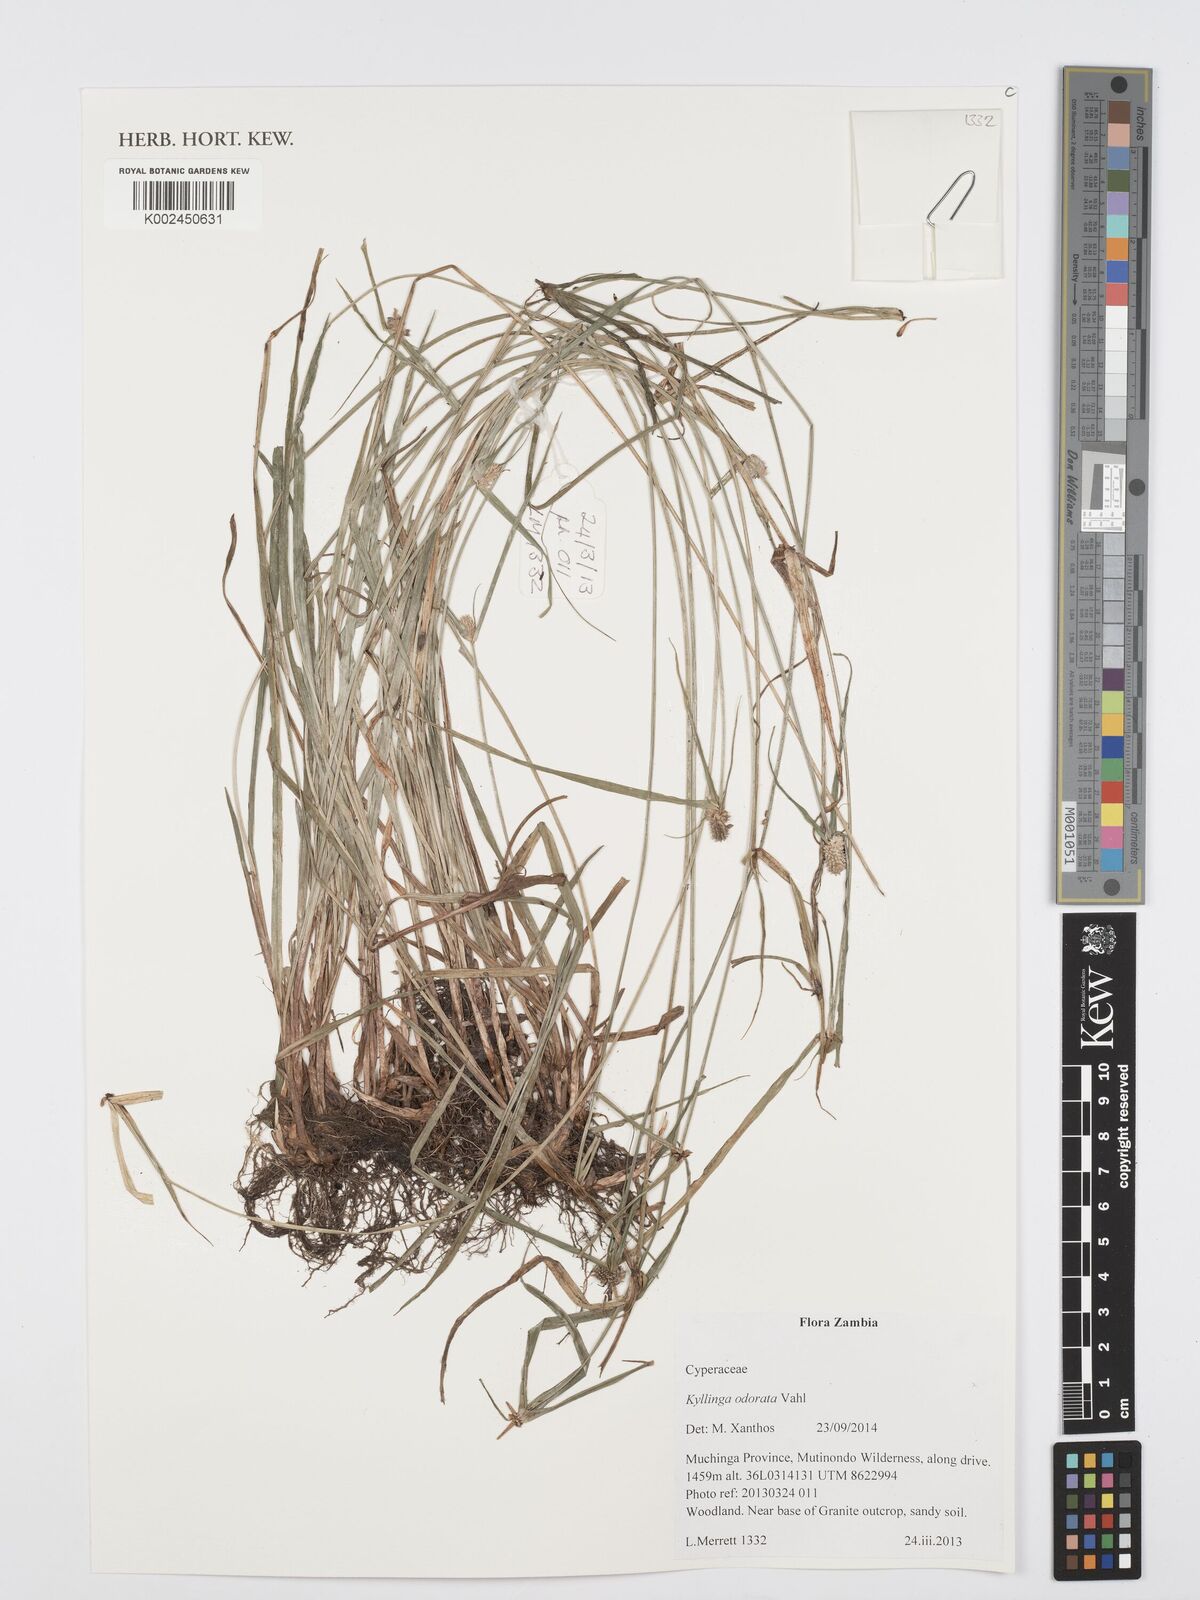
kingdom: Plantae
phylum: Tracheophyta
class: Liliopsida
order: Poales
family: Cyperaceae
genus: Cyperus
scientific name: Cyperus
